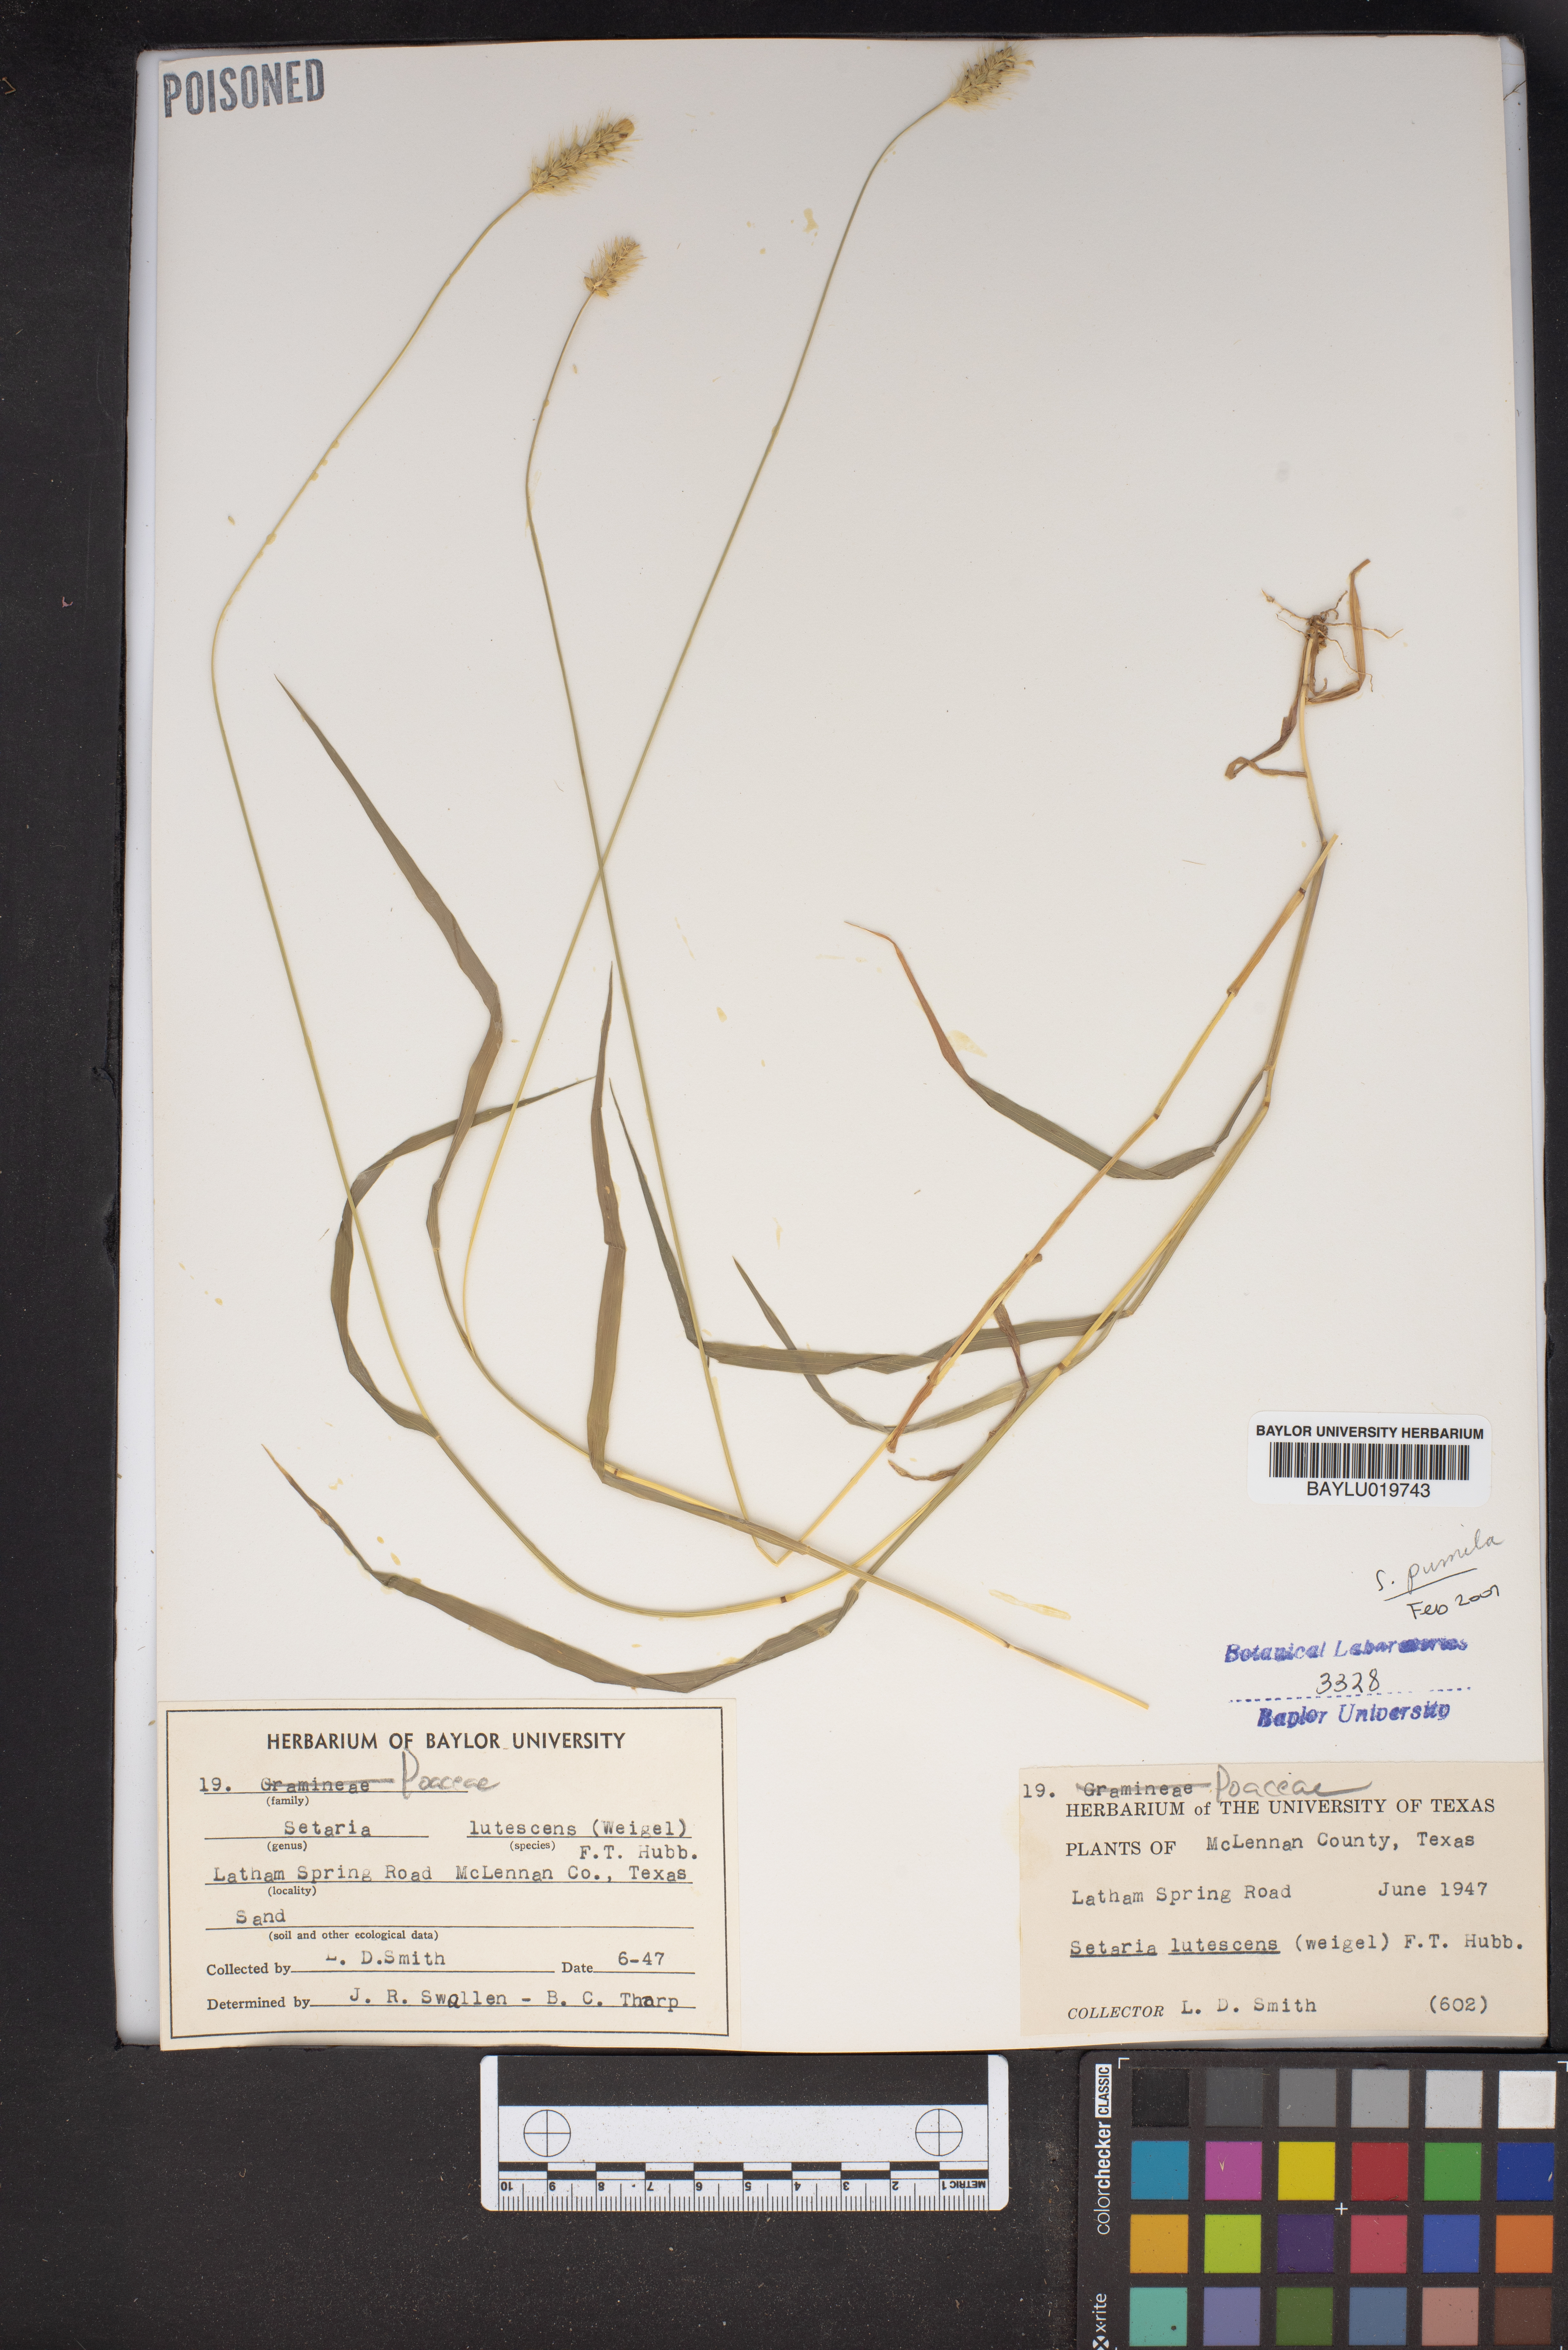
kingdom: Plantae
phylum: Tracheophyta
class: Liliopsida
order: Poales
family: Poaceae
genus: Cenchrus
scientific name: Cenchrus americanus
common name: Pearl millet
